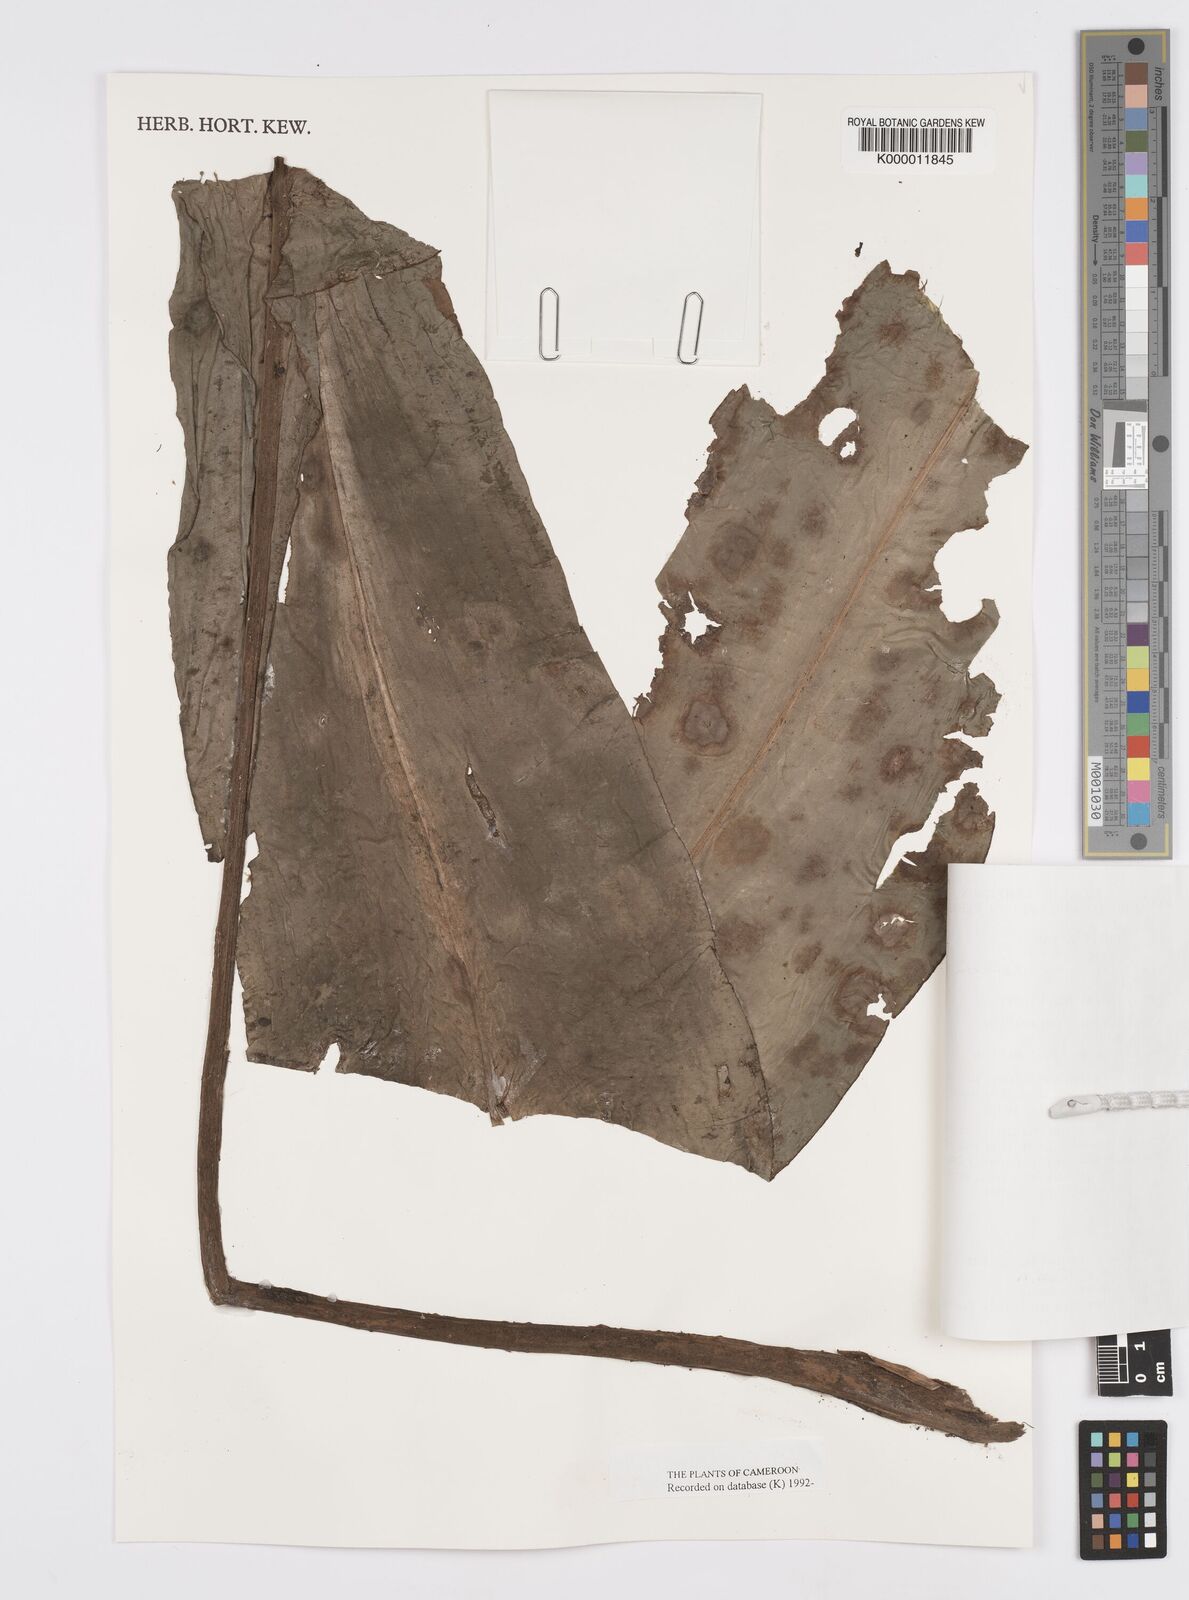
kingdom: Plantae
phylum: Tracheophyta
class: Liliopsida
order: Commelinales
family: Commelinaceae
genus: Palisota
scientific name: Palisota barteri
